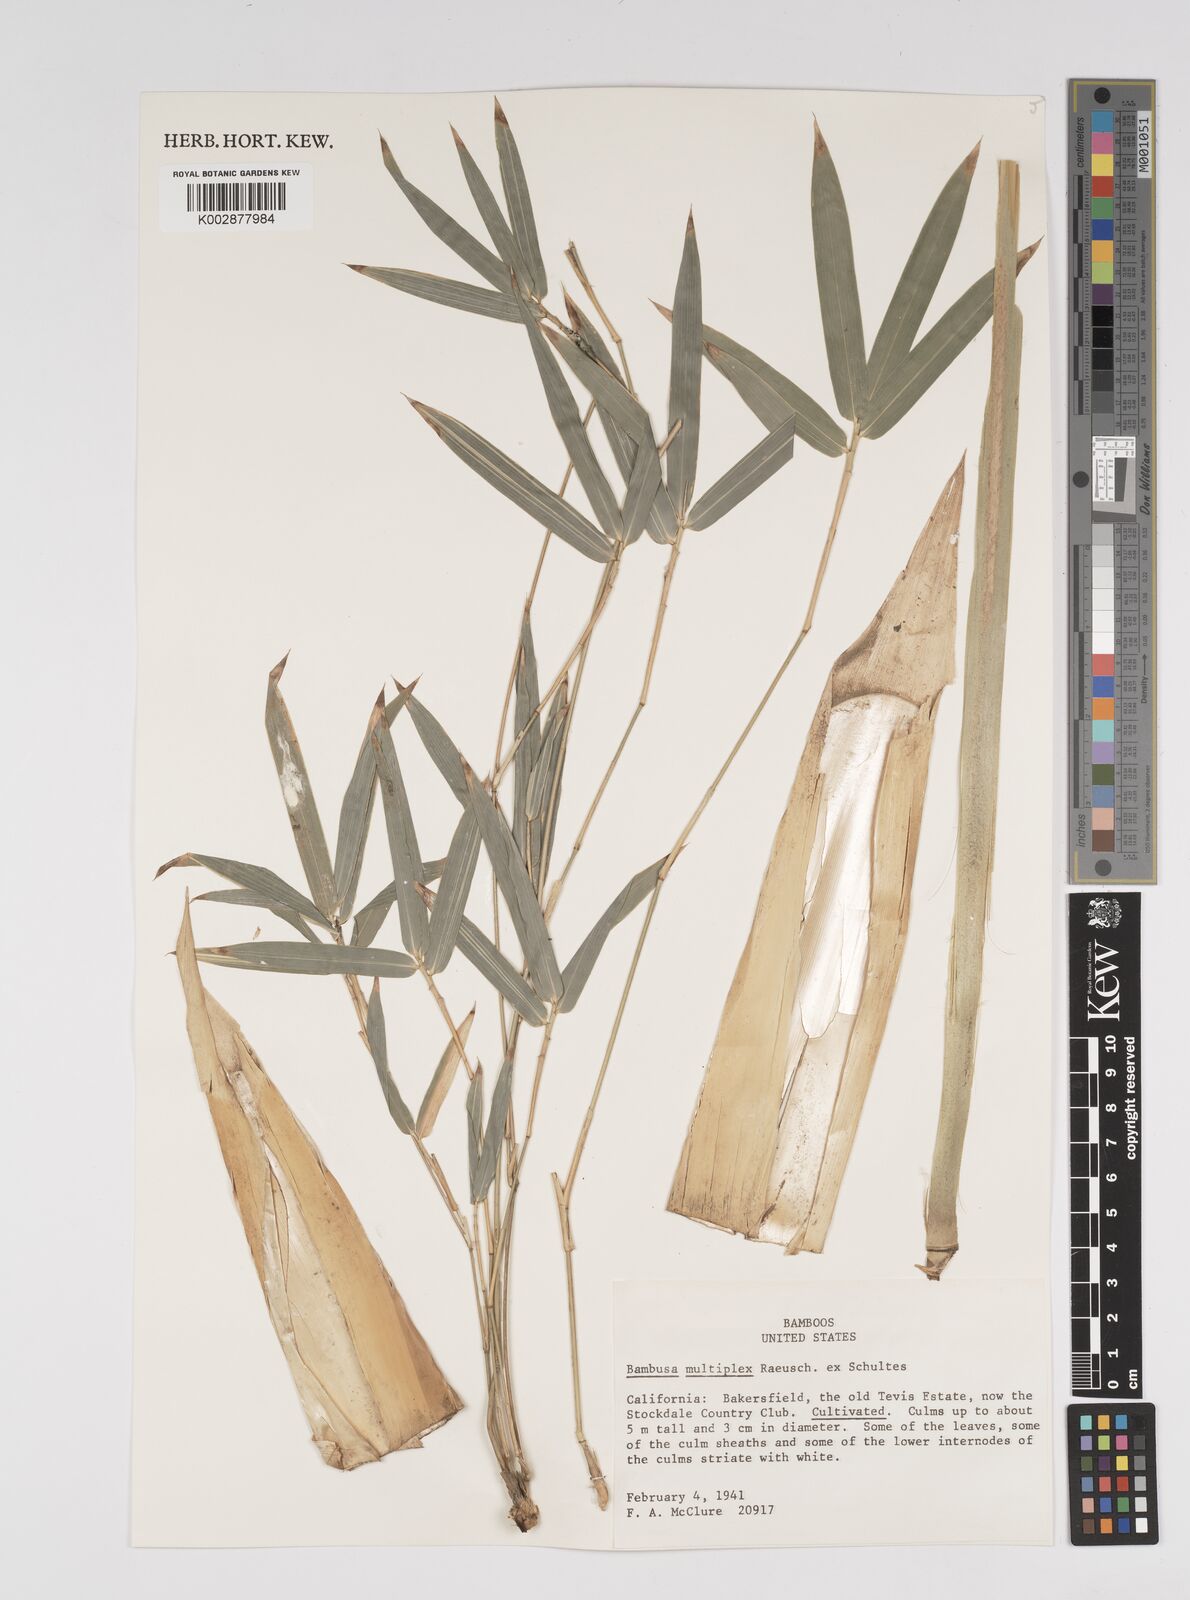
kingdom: Plantae
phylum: Tracheophyta
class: Liliopsida
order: Poales
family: Poaceae
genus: Bambusa
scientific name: Bambusa
